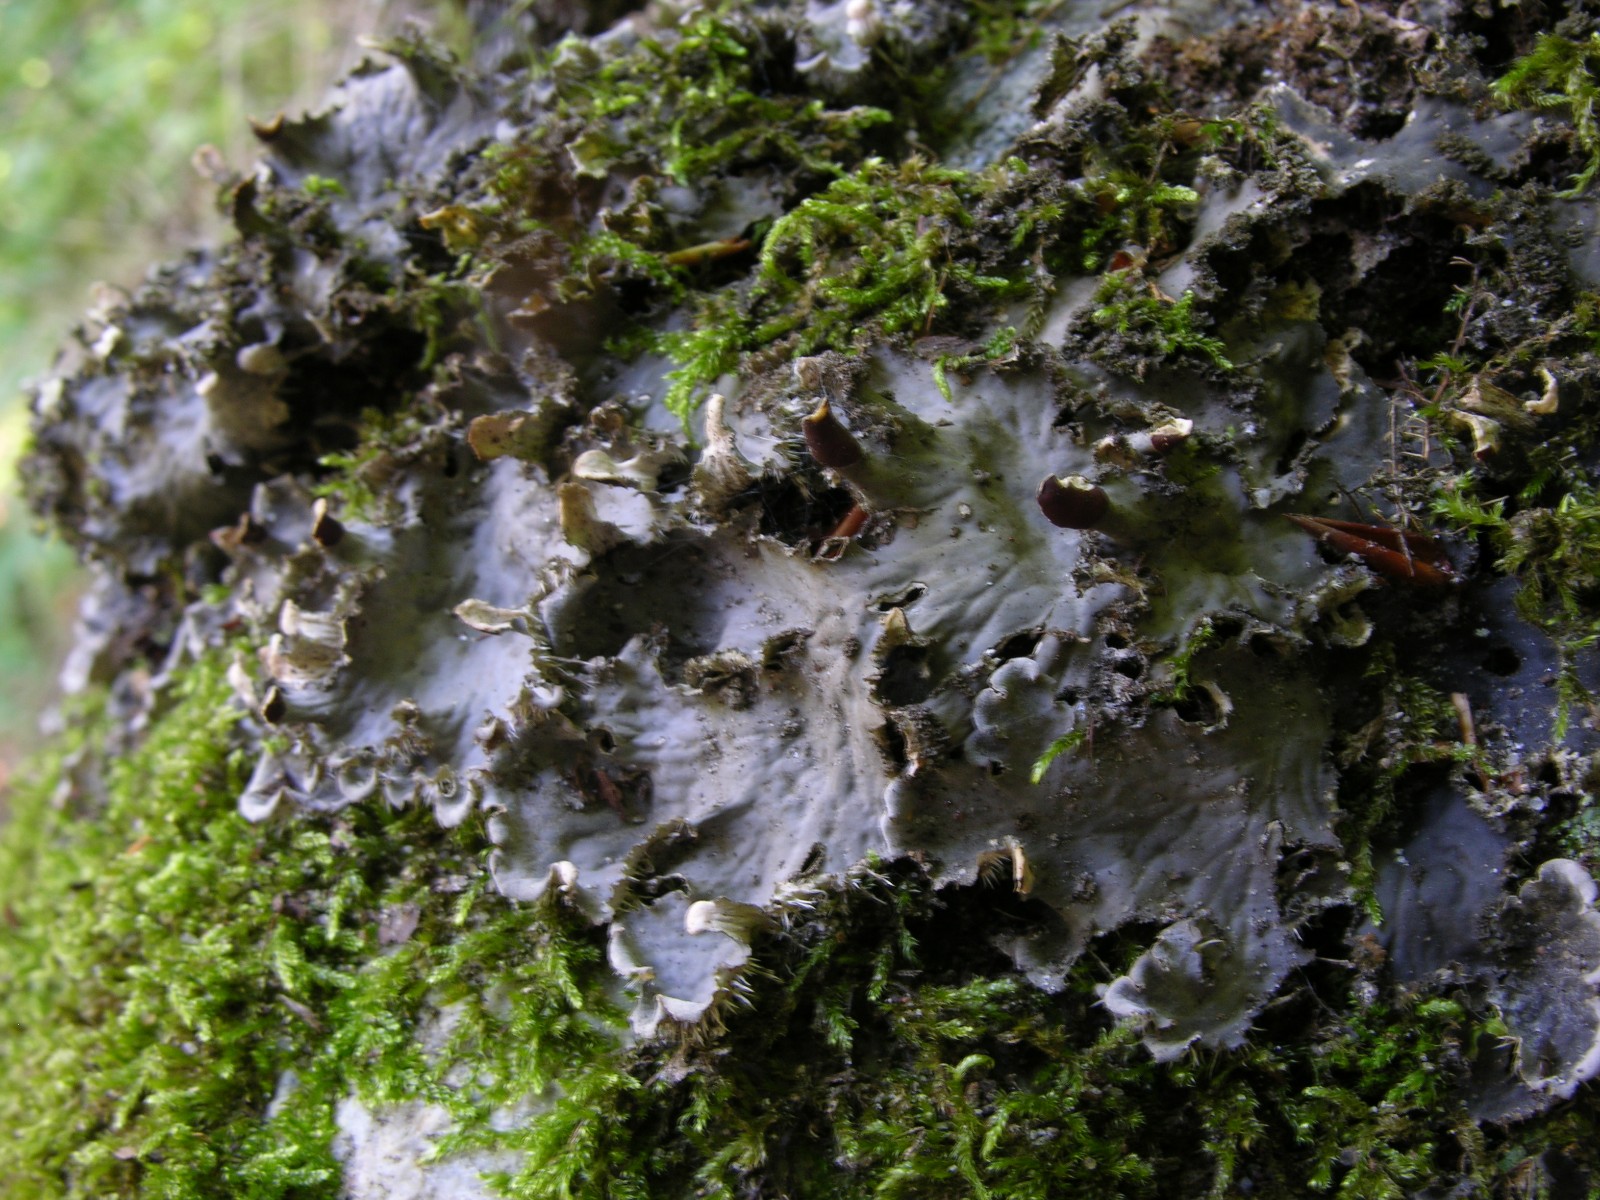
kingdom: Fungi
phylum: Ascomycota
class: Lecanoromycetes
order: Peltigerales
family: Peltigeraceae
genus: Peltigera
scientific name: Peltigera praetextata
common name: kruset skjoldlav
